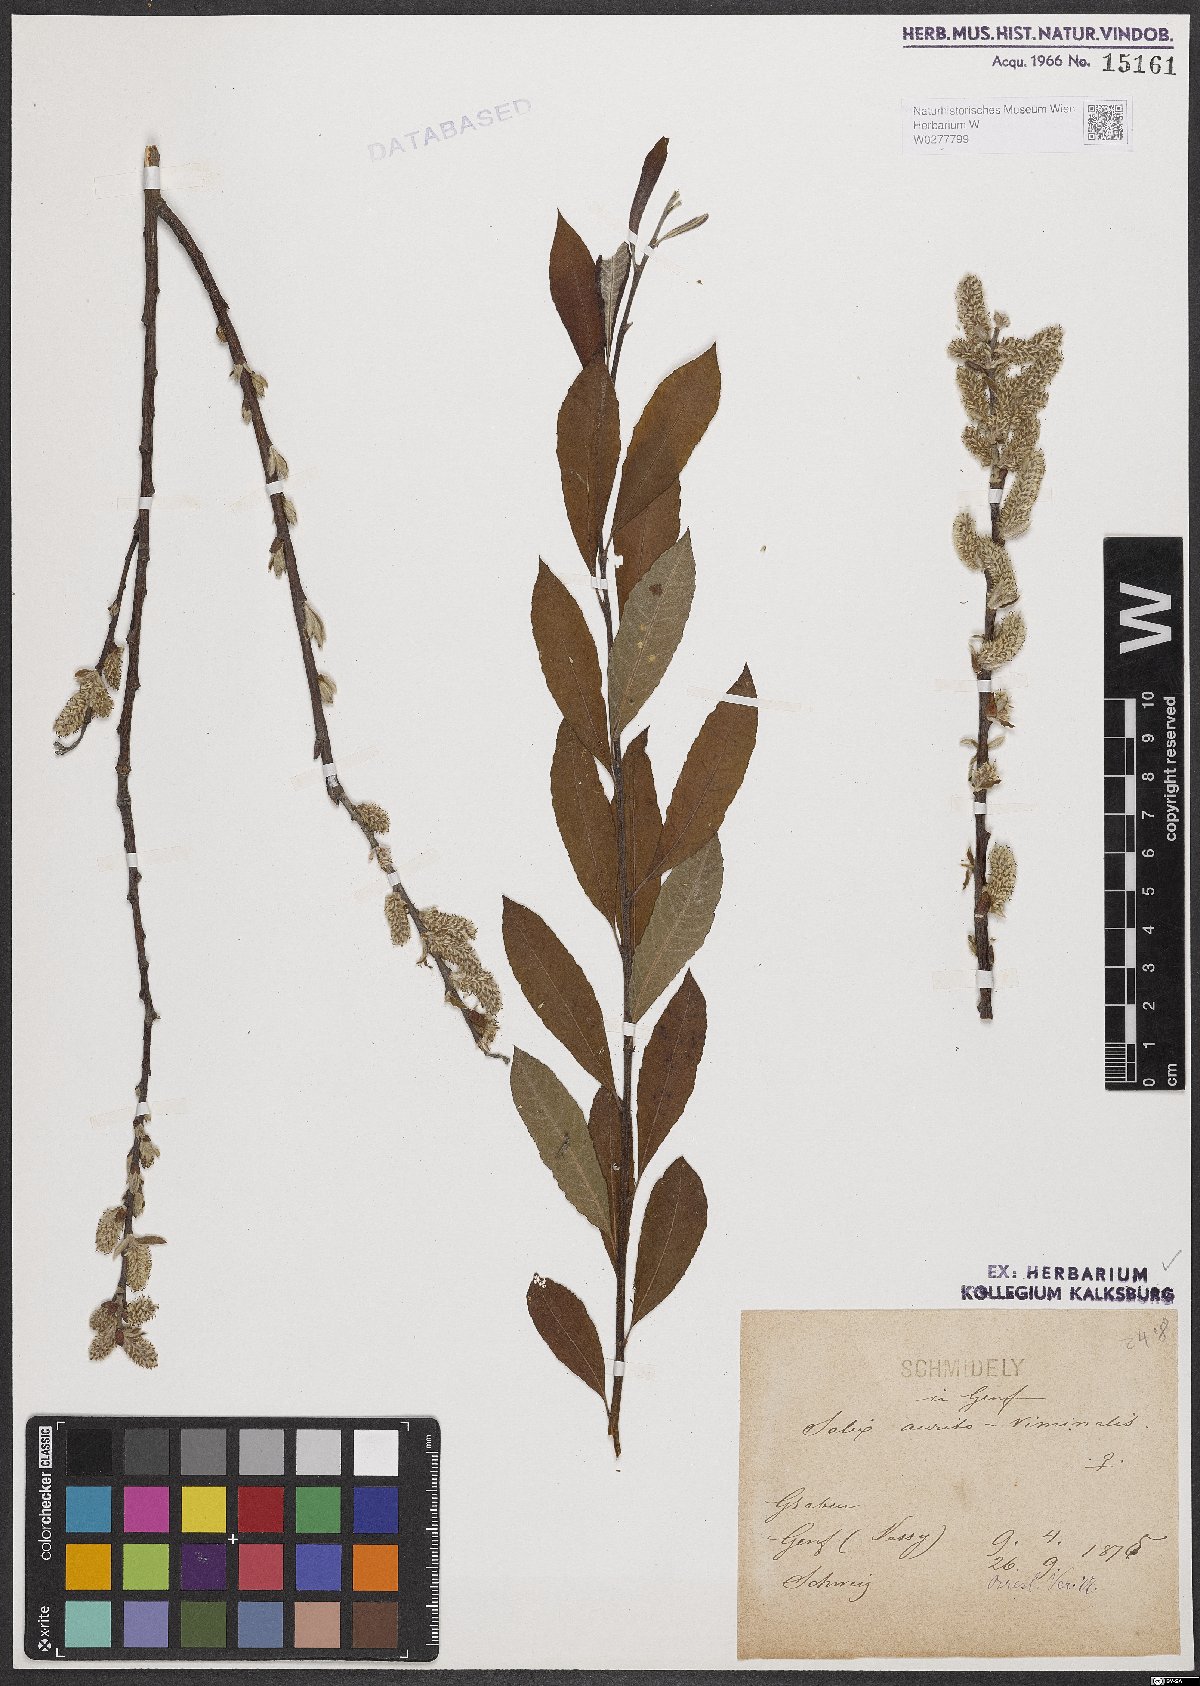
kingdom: Plantae
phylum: Tracheophyta
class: Magnoliopsida
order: Malpighiales
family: Salicaceae
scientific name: Salicaceae
